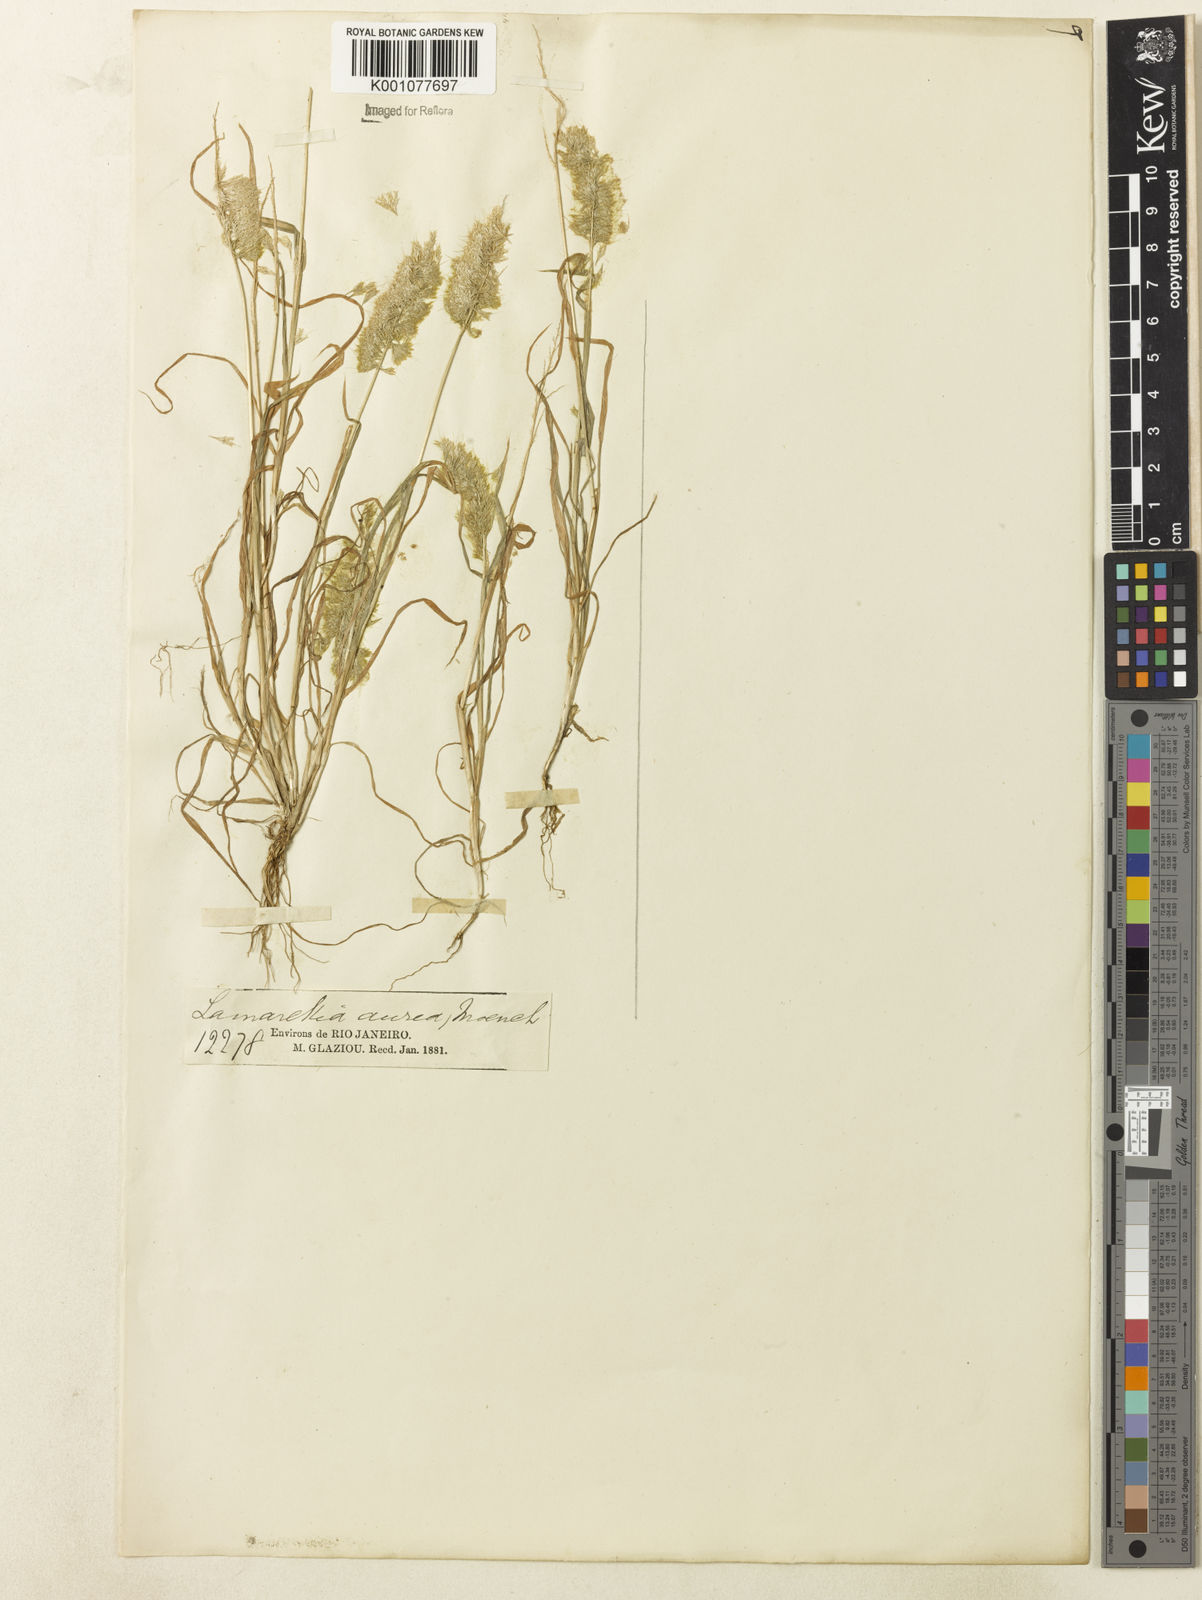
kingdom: Plantae
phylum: Tracheophyta
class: Liliopsida
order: Poales
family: Poaceae
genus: Lamarckia
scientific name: Lamarckia aurea
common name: Golden dog's-tail
